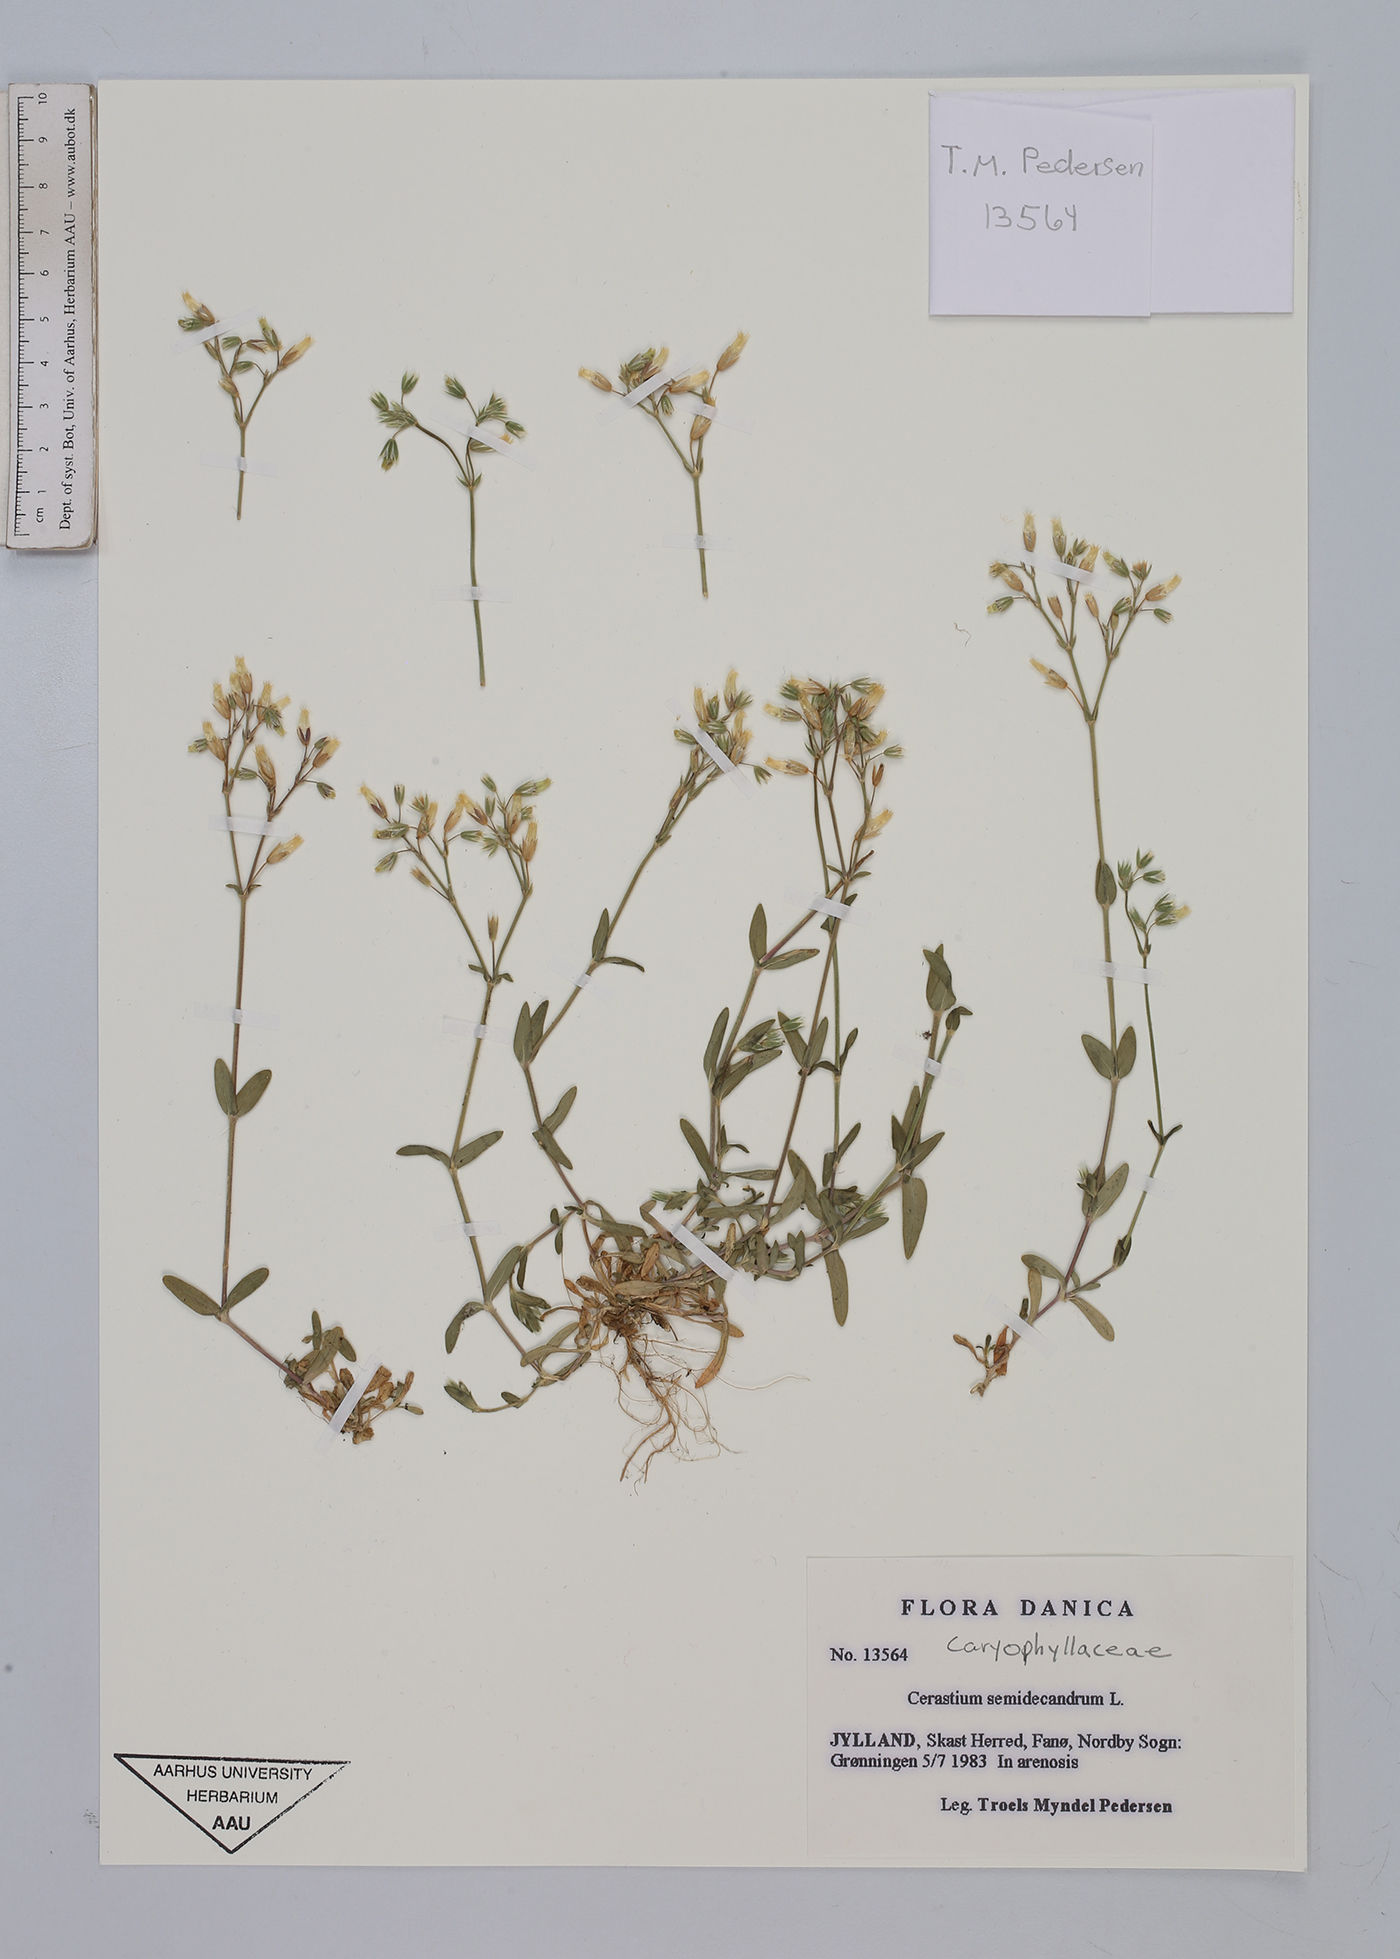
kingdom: Plantae
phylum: Tracheophyta
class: Magnoliopsida
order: Caryophyllales
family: Caryophyllaceae
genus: Cerastium
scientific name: Cerastium semidecandrum
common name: Little mouse-ear
